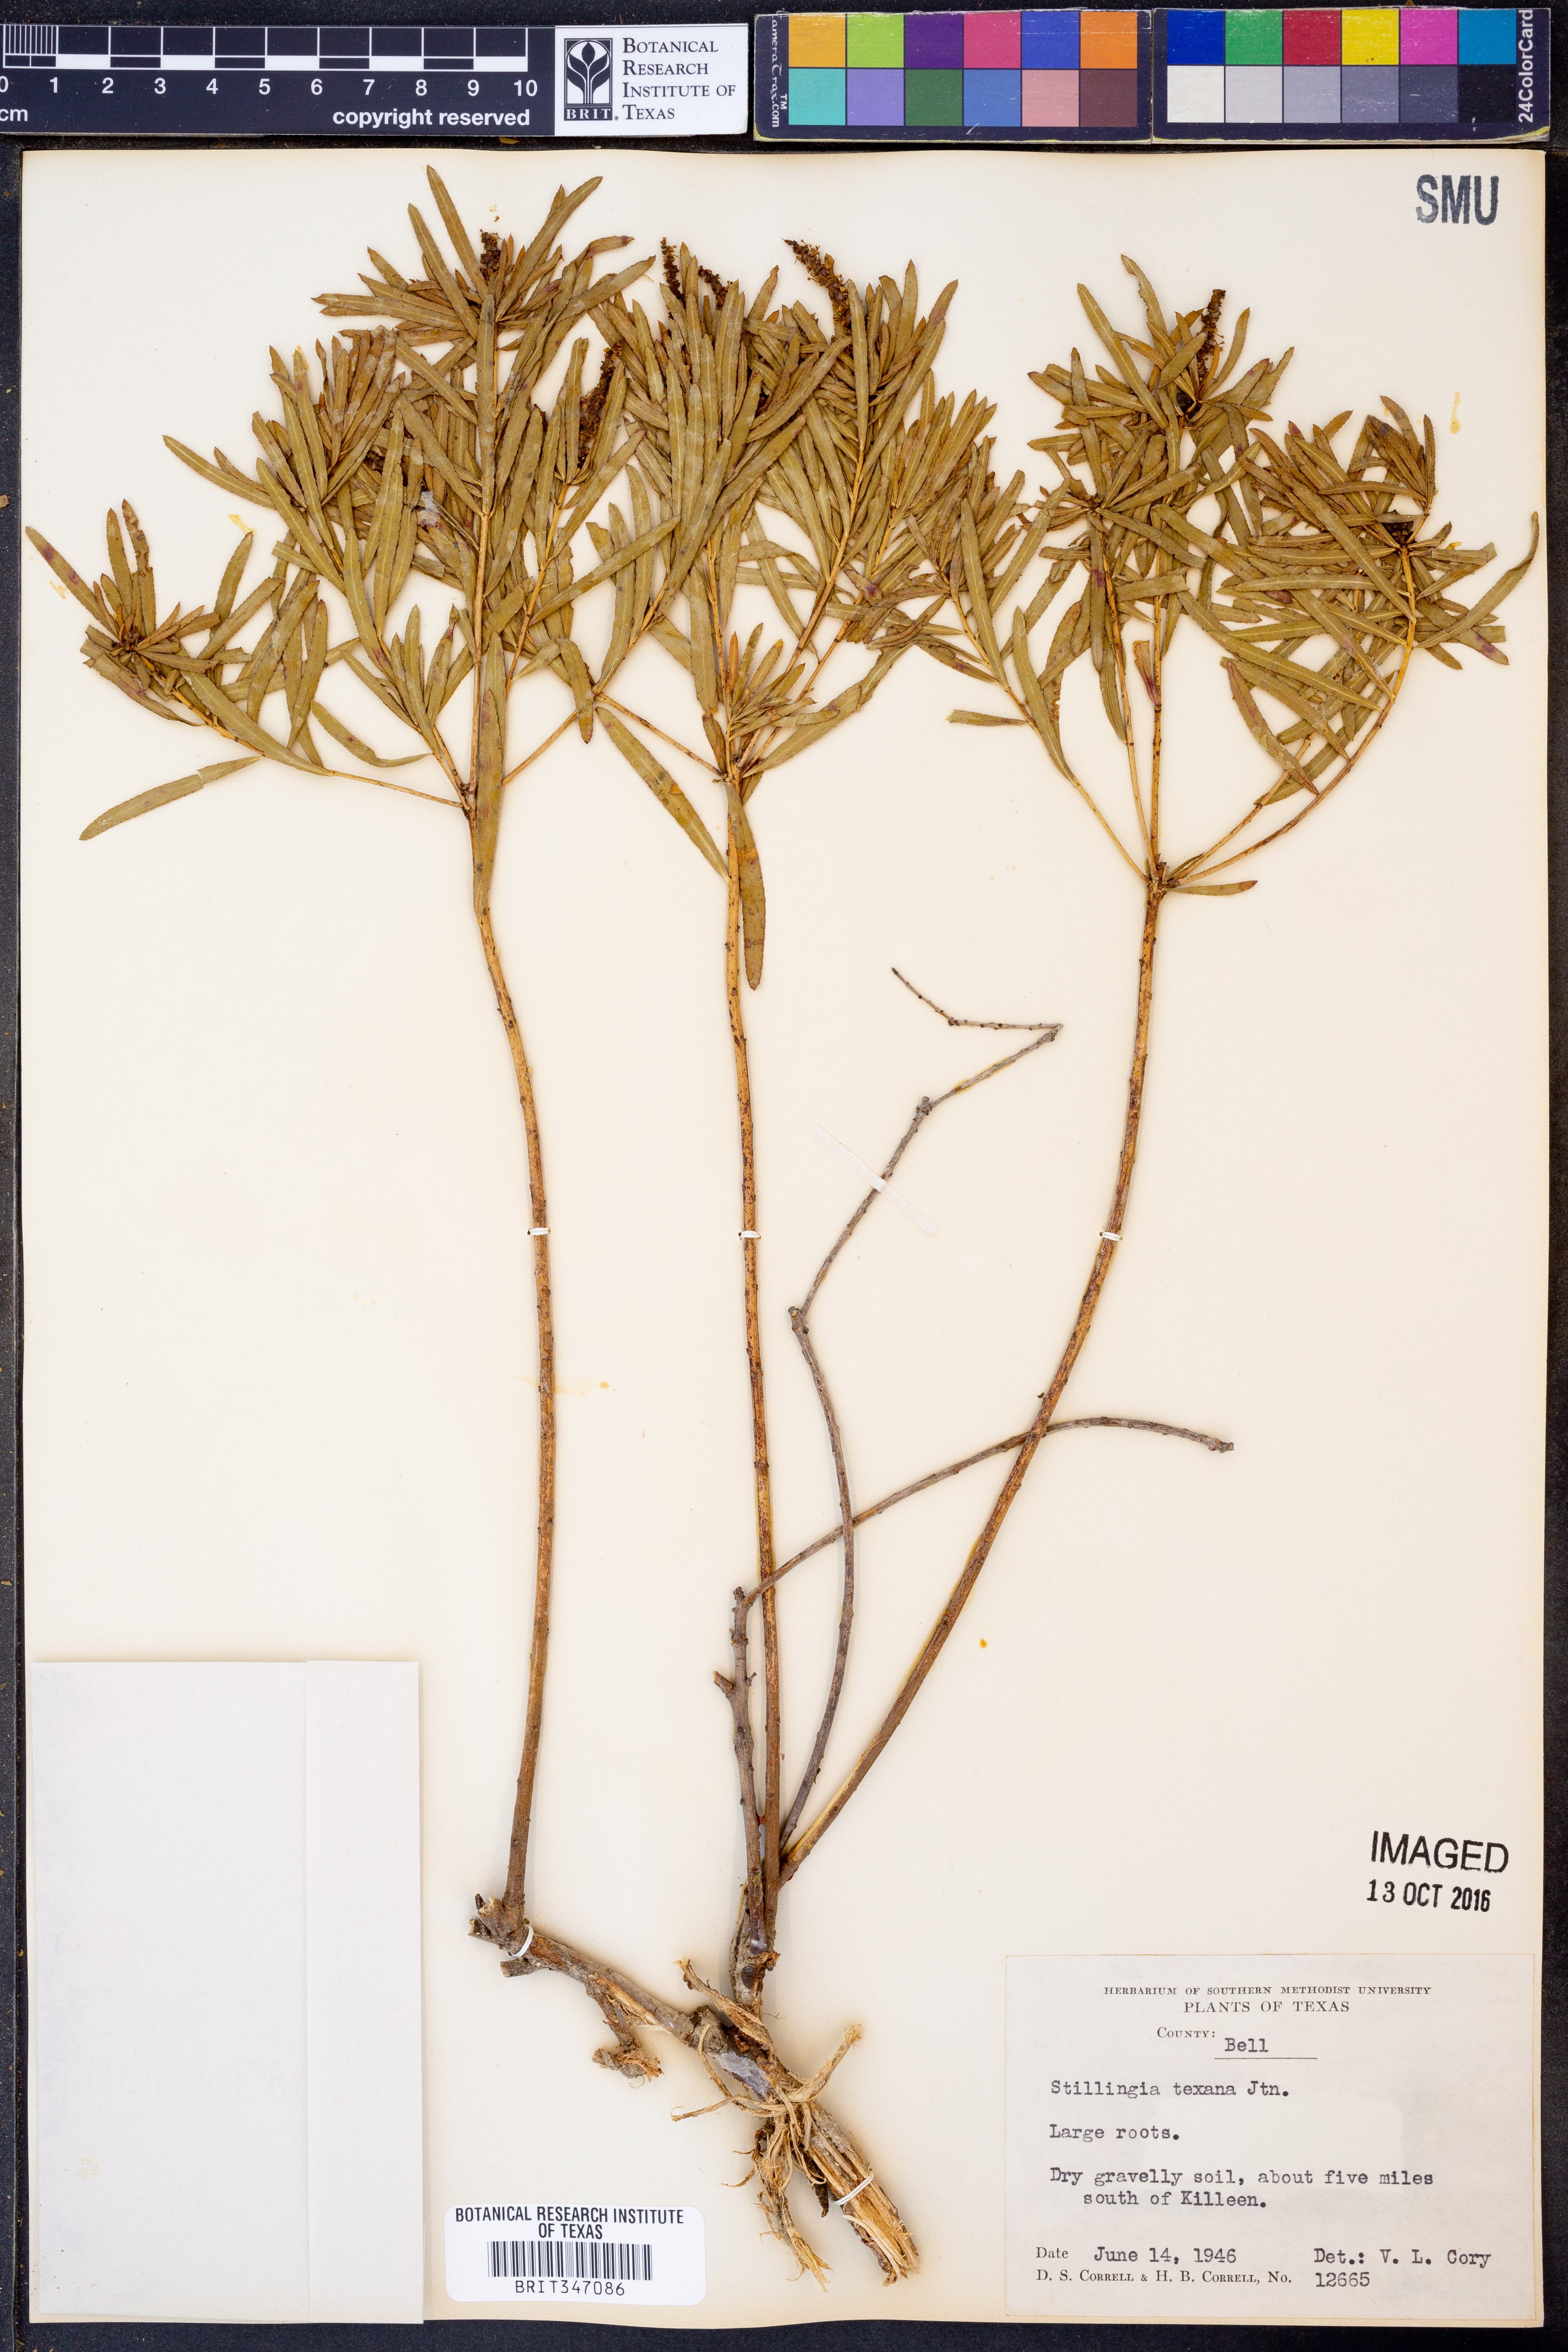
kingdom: Plantae
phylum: Tracheophyta
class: Magnoliopsida
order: Malpighiales
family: Euphorbiaceae
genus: Stillingia
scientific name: Stillingia texana
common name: Texas stillingia
